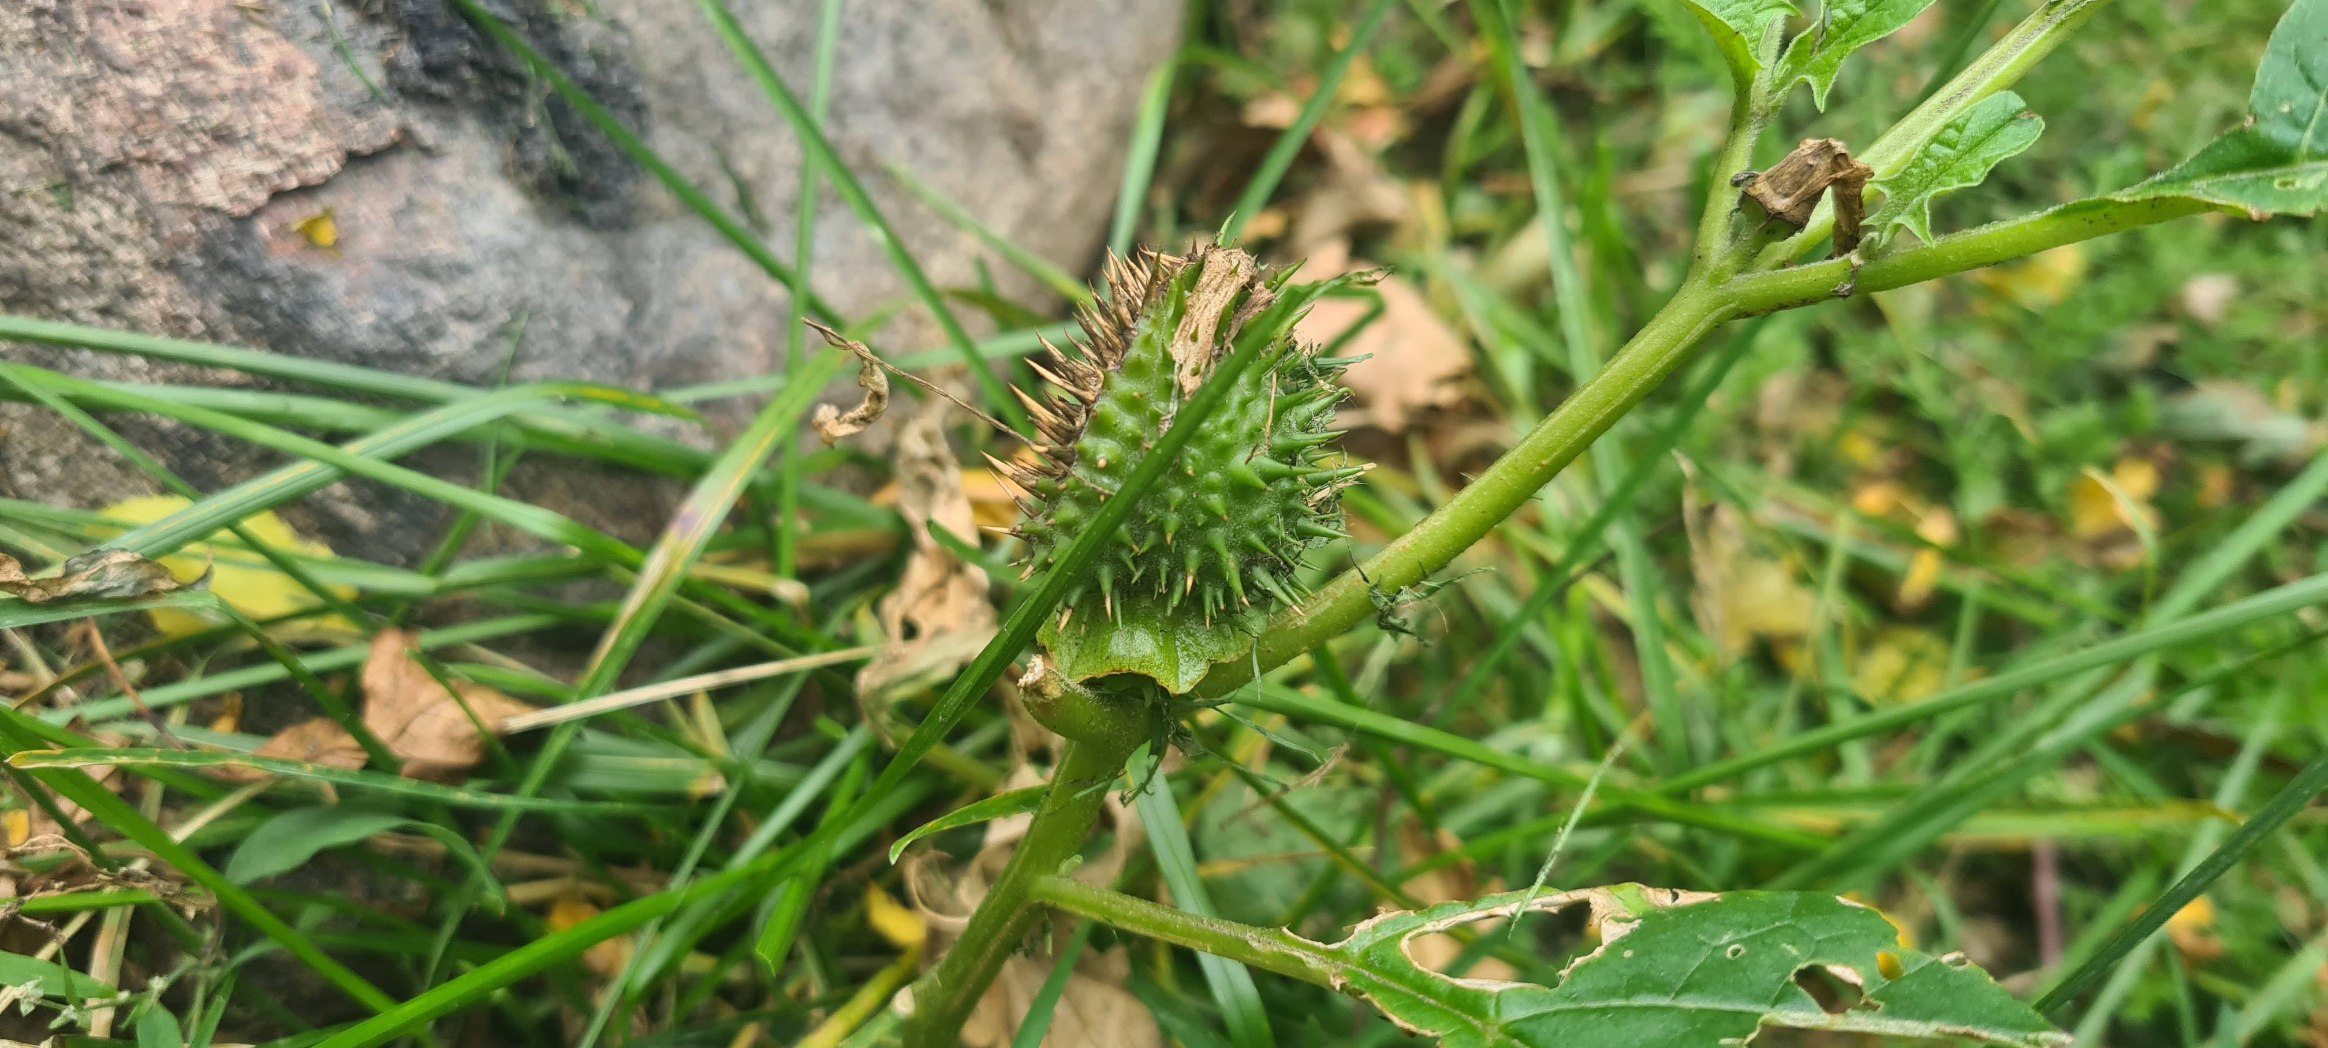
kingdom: Plantae
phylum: Tracheophyta
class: Magnoliopsida
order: Solanales
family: Solanaceae
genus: Datura
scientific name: Datura stramonium
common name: Pigæble
